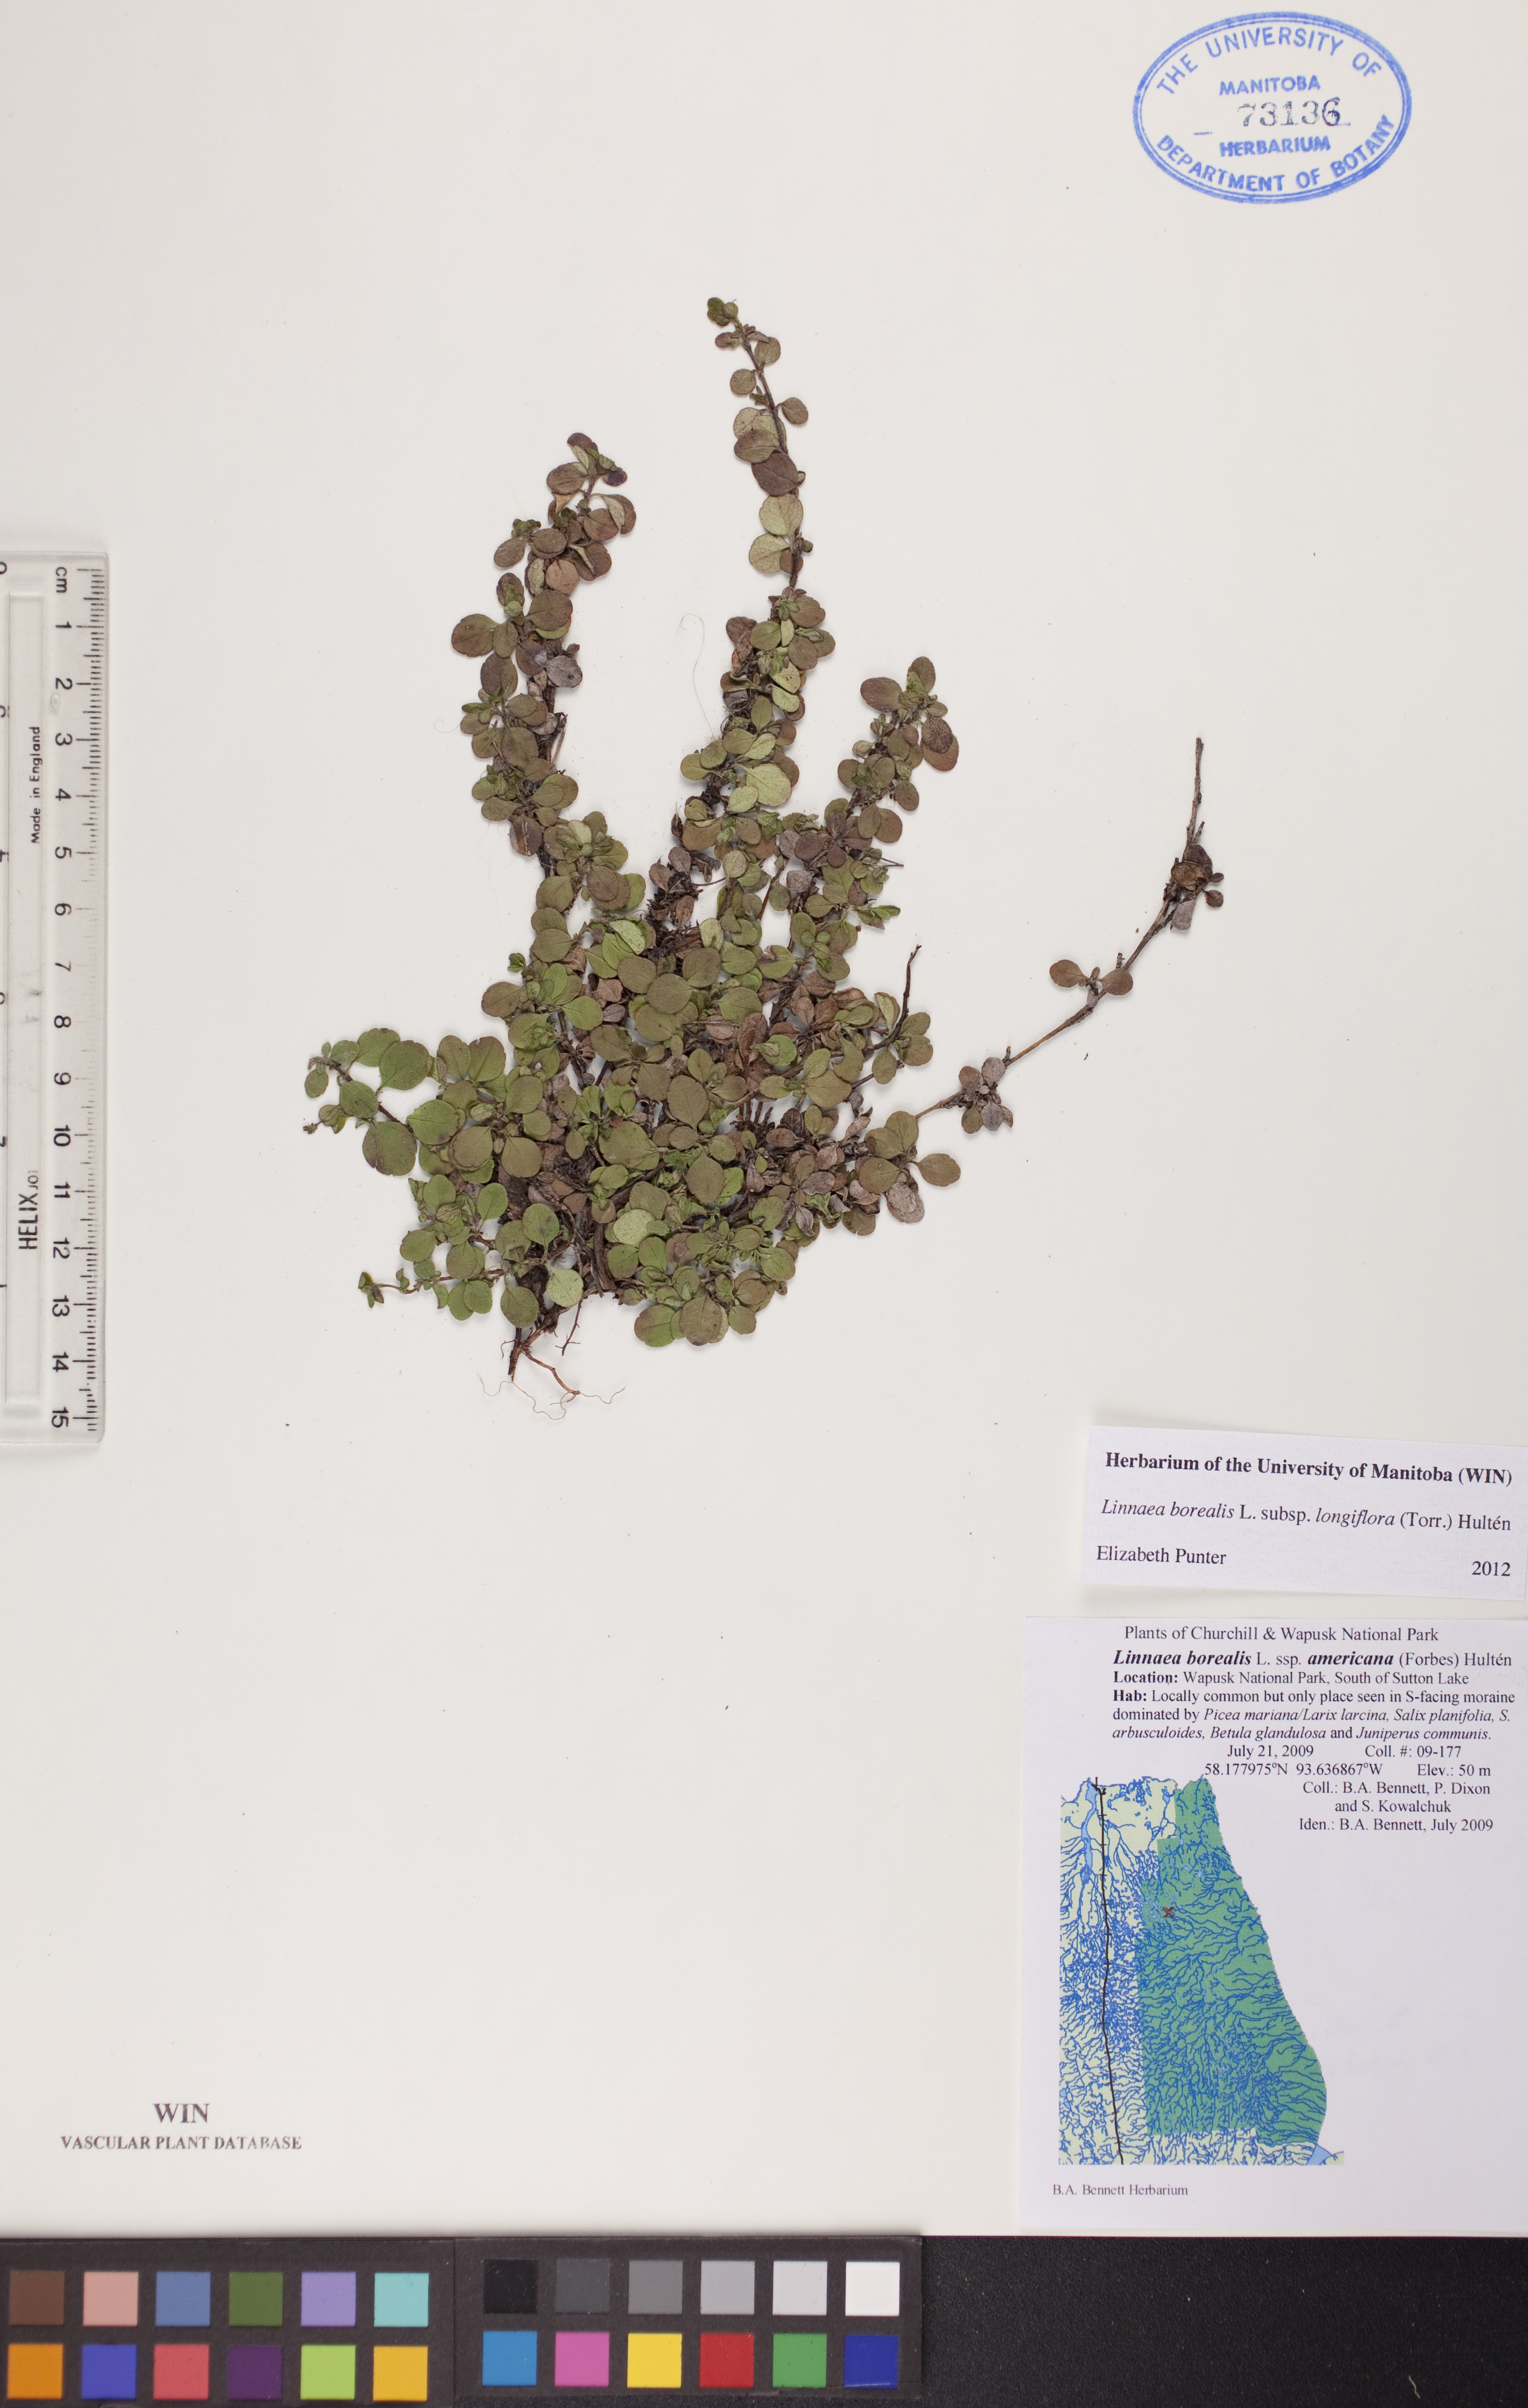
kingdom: Plantae
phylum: Tracheophyta
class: Magnoliopsida
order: Dipsacales
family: Caprifoliaceae
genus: Linnaea
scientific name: Linnaea borealis
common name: Twinflower
